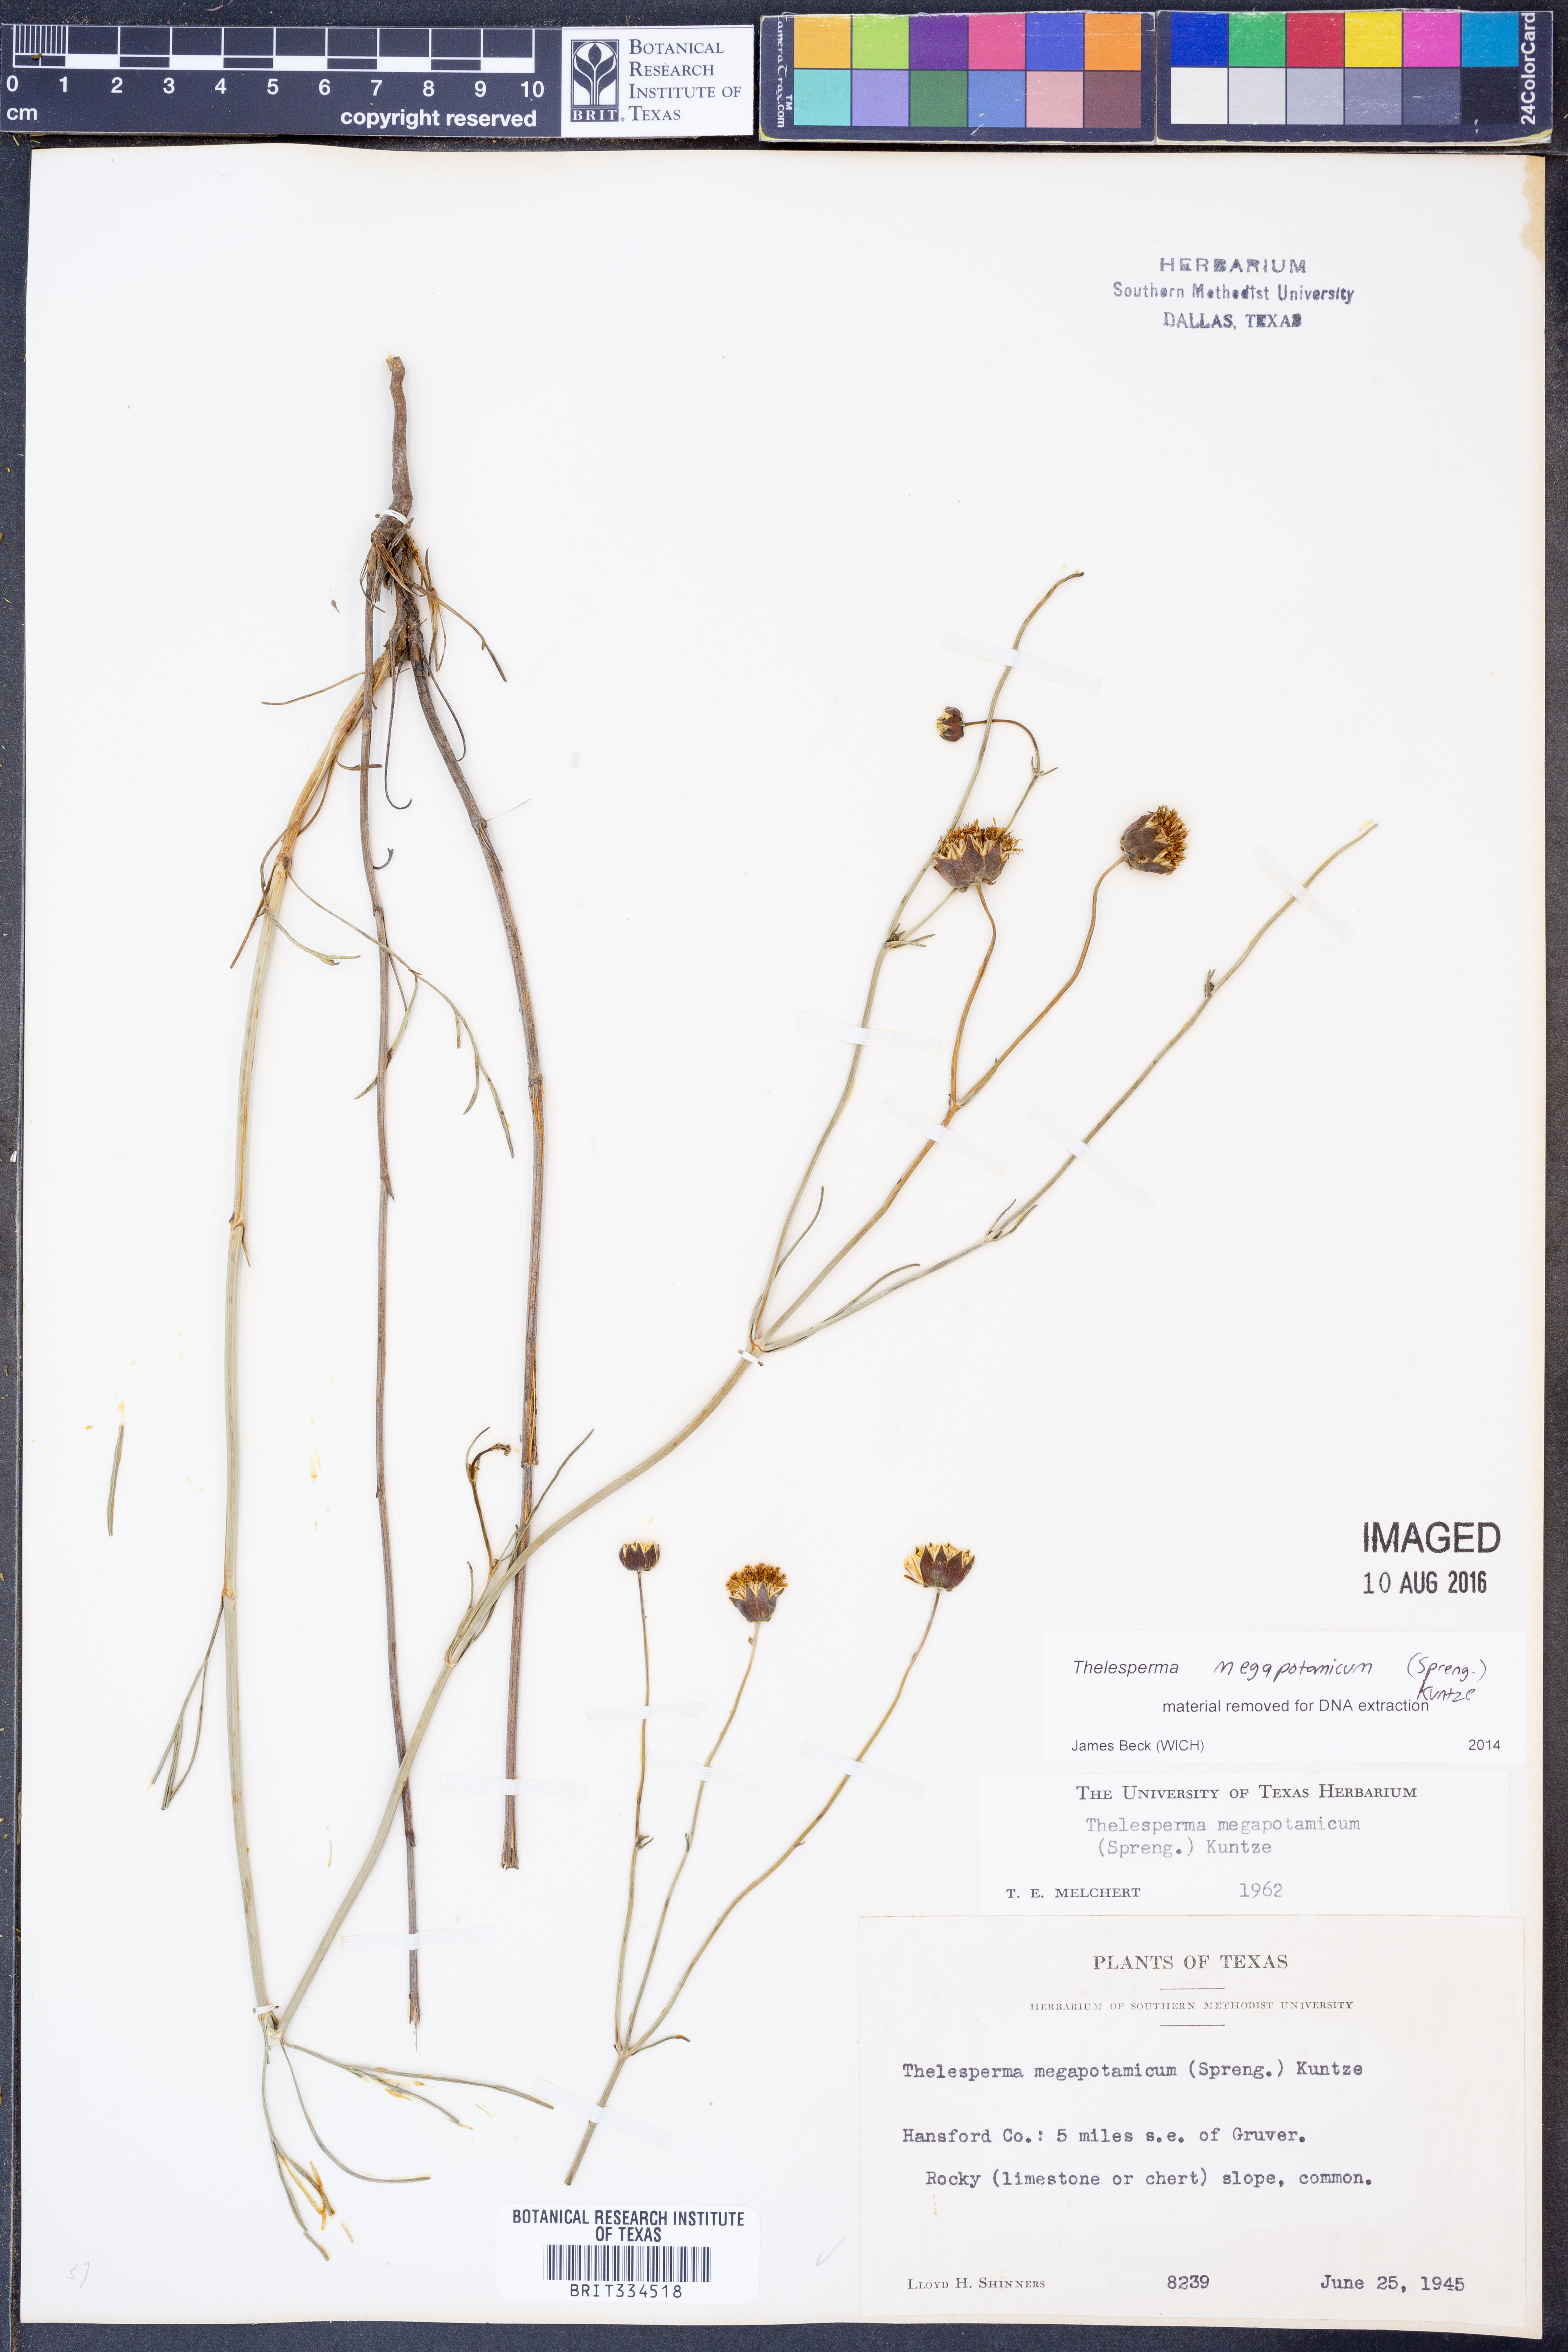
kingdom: Plantae
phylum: Tracheophyta
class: Magnoliopsida
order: Asterales
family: Asteraceae
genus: Thelesperma
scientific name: Thelesperma megapotamicum
